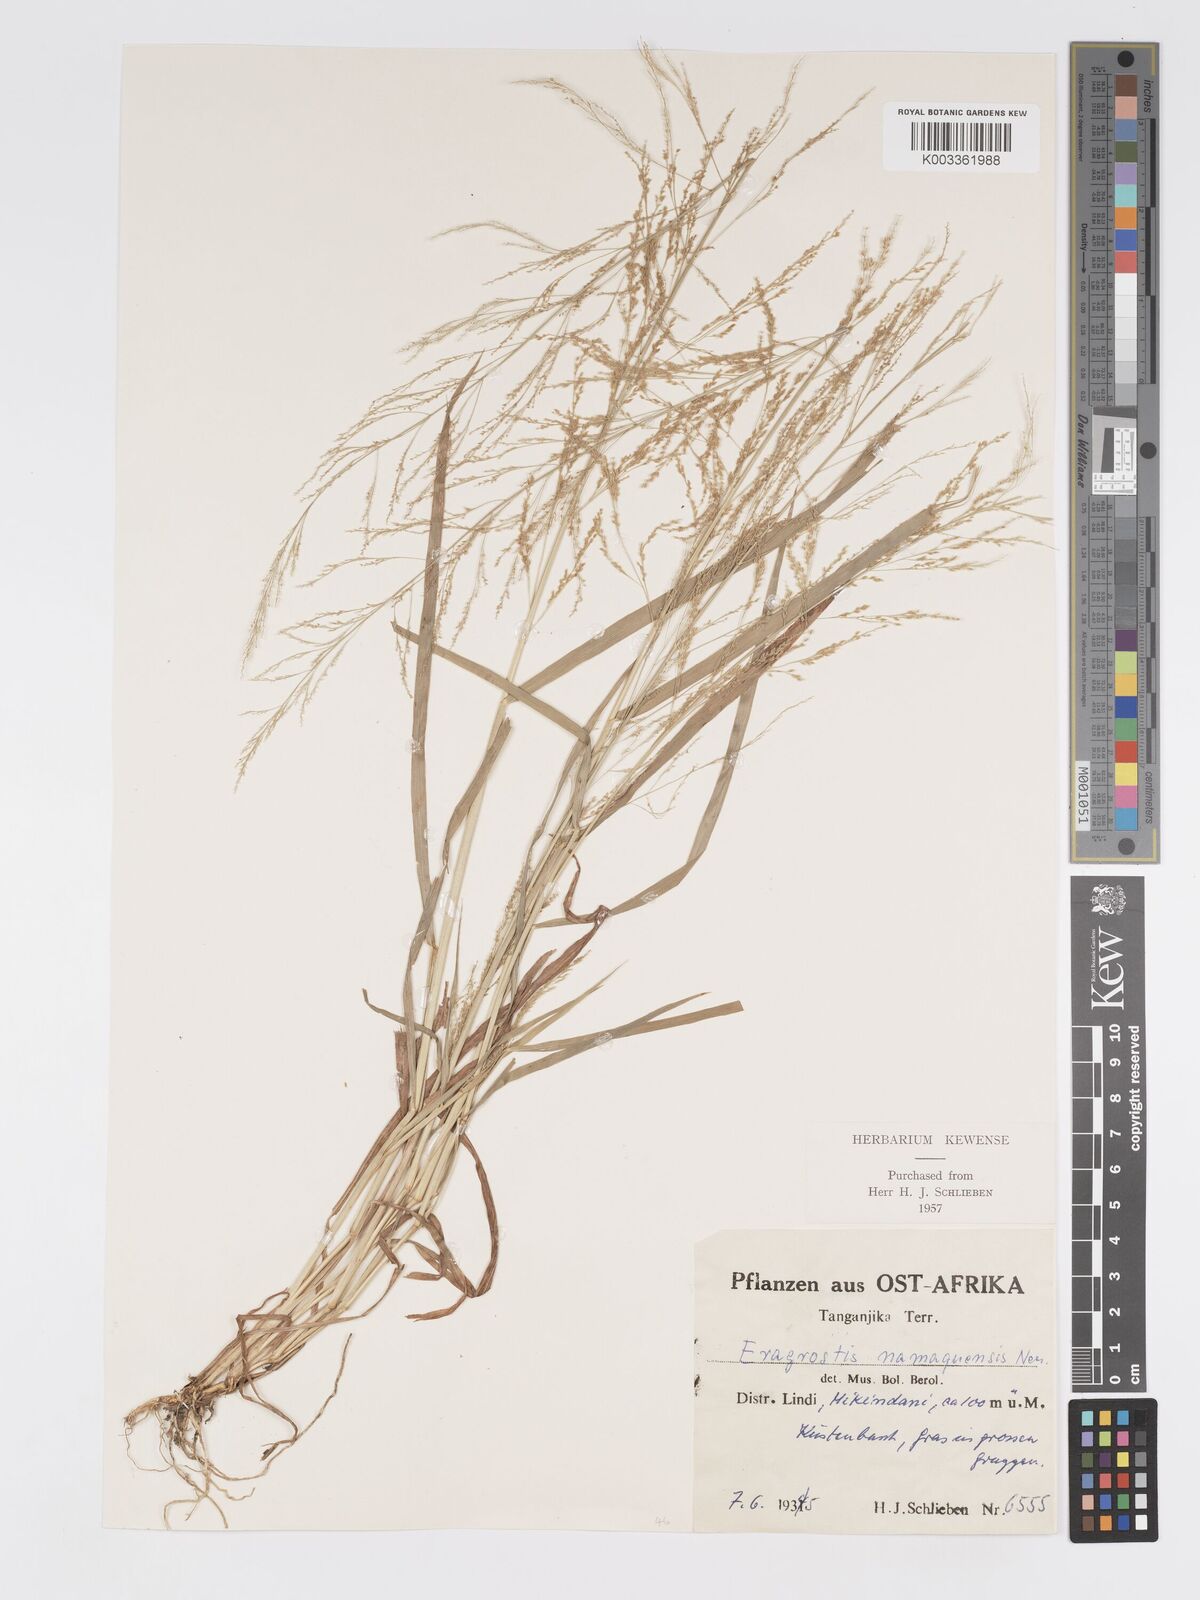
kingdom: Plantae
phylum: Tracheophyta
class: Liliopsida
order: Poales
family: Poaceae
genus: Eragrostis
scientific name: Eragrostis japonica
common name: Pond lovegrass
